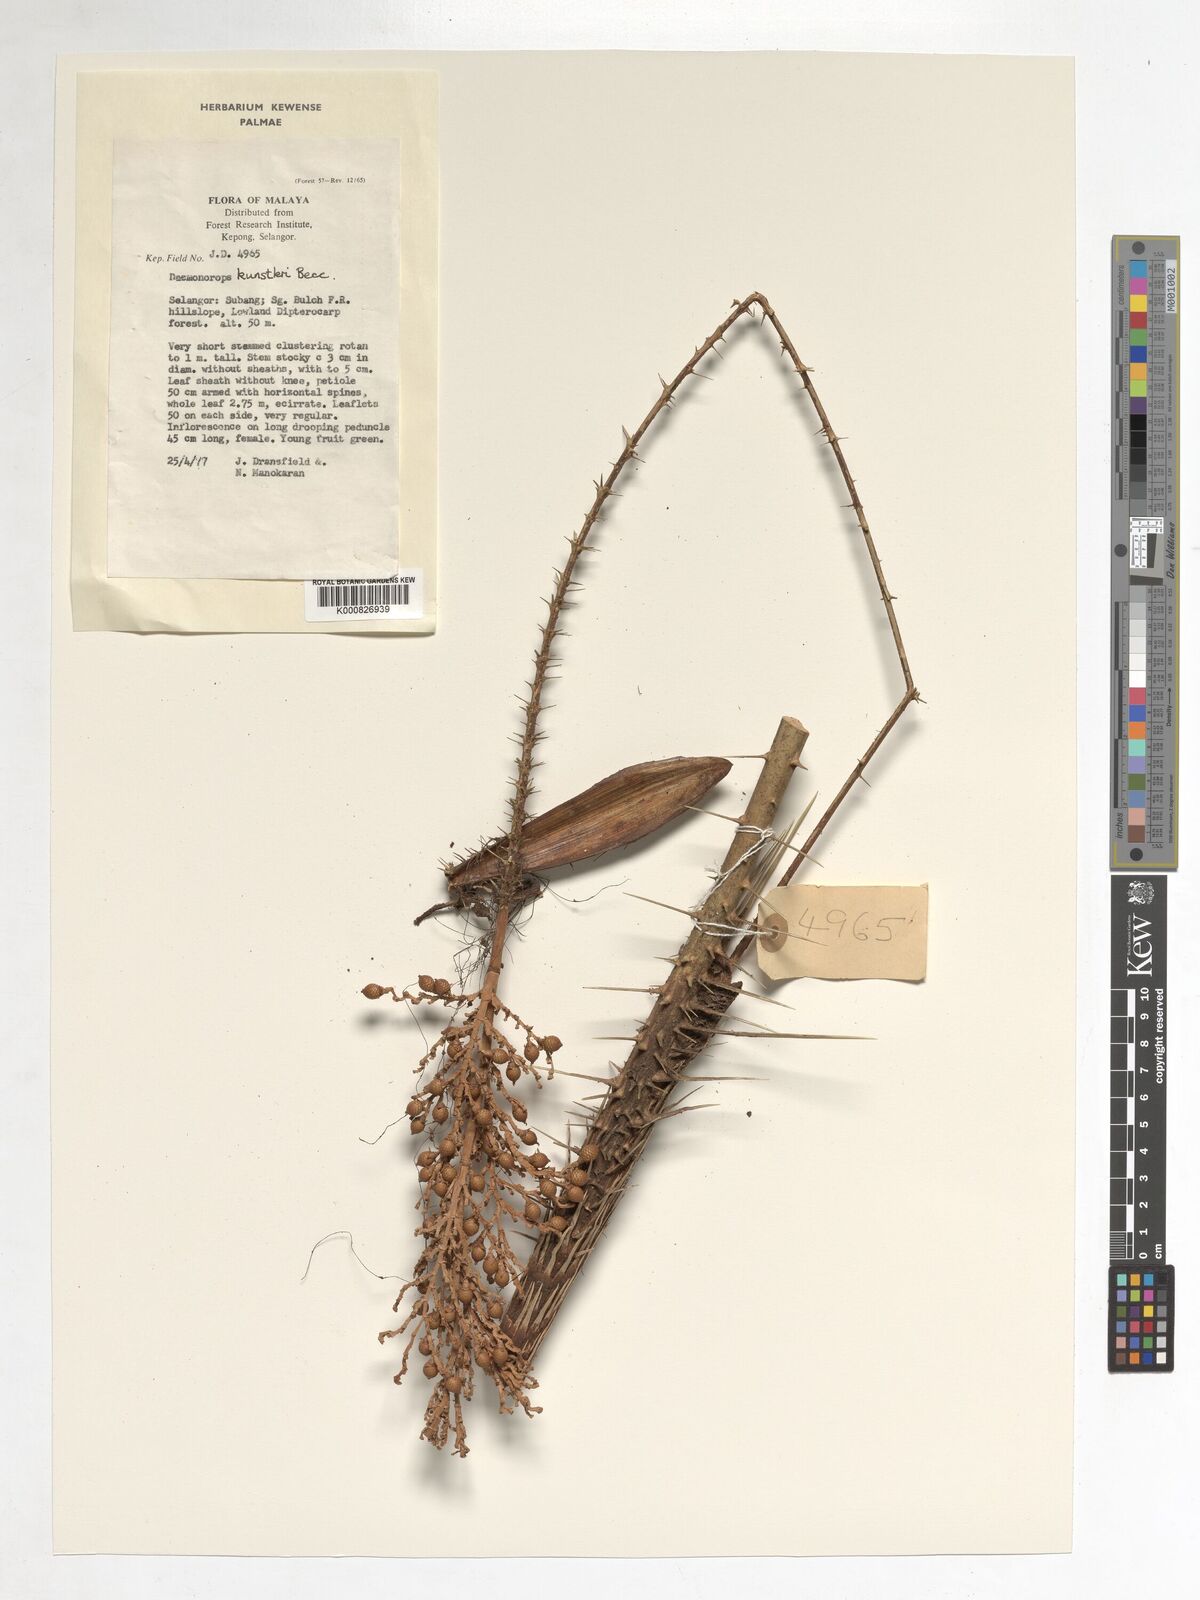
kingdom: Plantae
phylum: Tracheophyta
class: Liliopsida
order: Arecales
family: Arecaceae
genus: Calamus
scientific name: Calamus kunstleri
